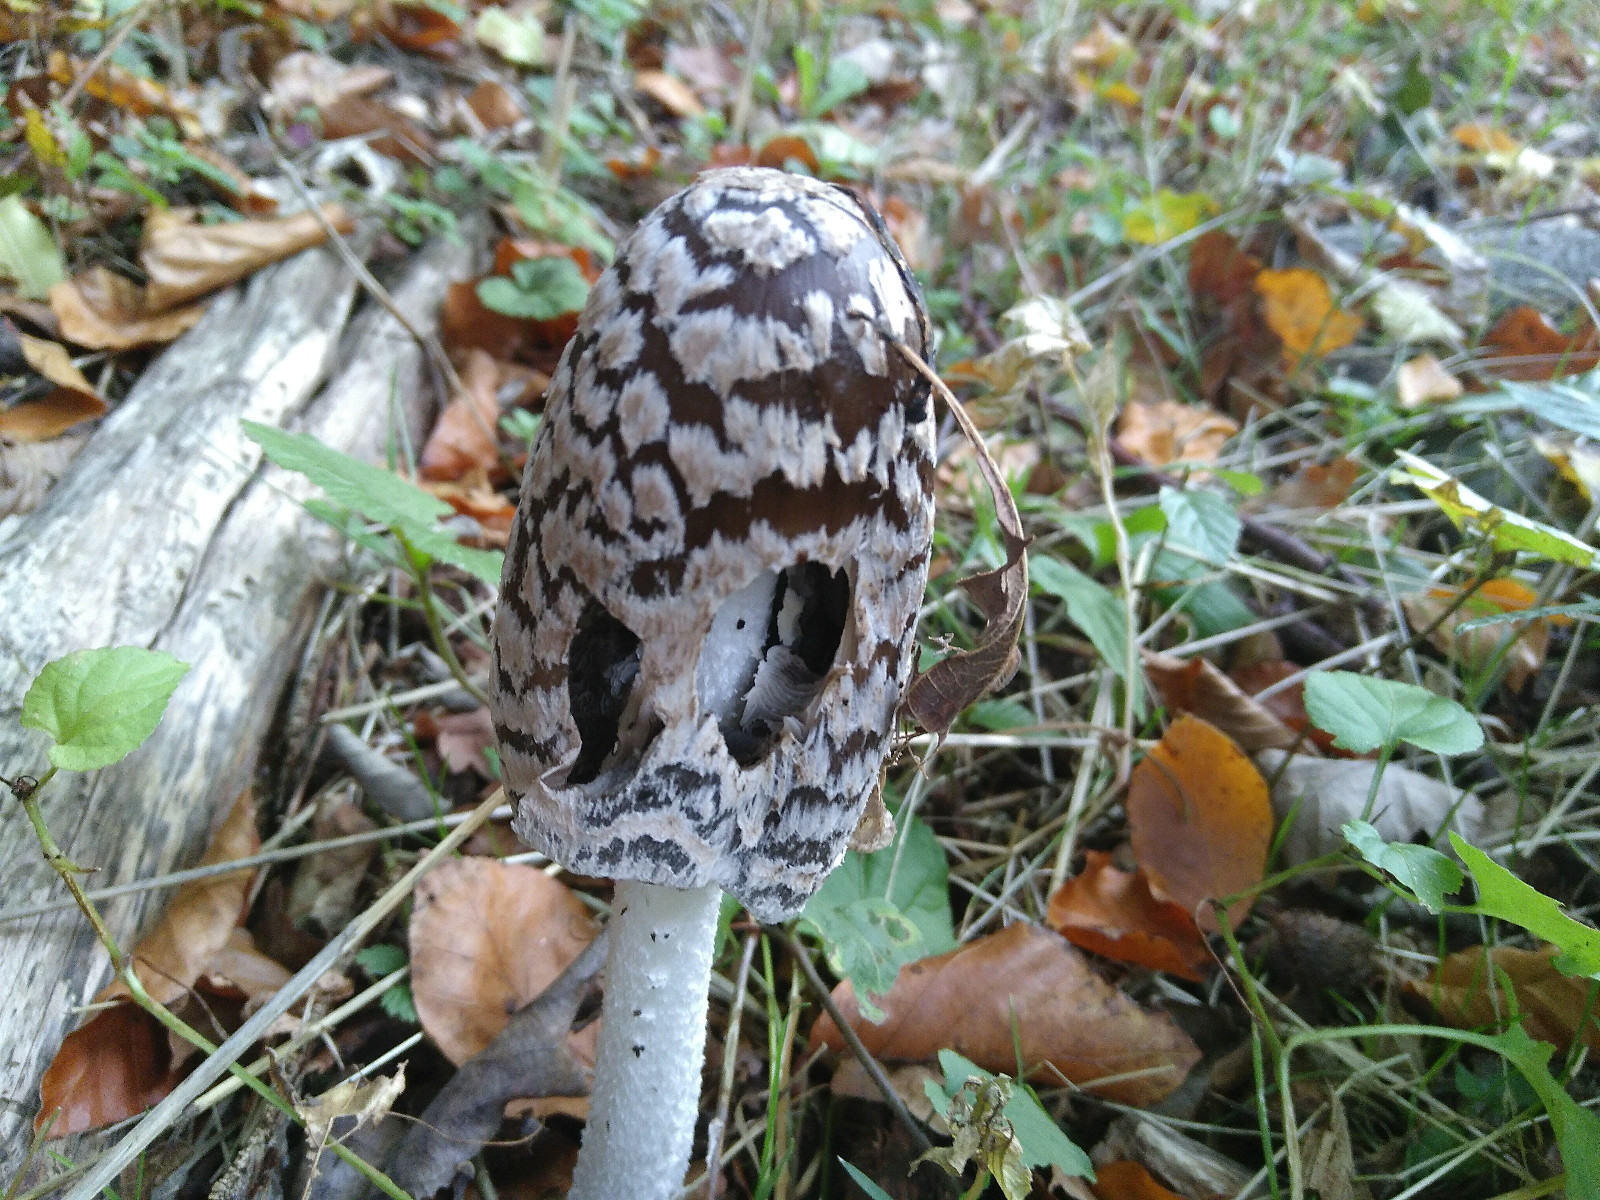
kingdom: Fungi
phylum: Basidiomycota
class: Agaricomycetes
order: Agaricales
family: Psathyrellaceae
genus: Coprinopsis
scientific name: Coprinopsis picacea
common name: skade-blækhat
